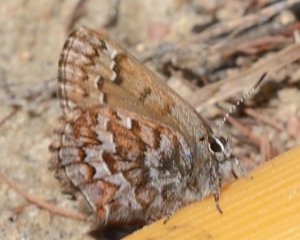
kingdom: Animalia
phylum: Arthropoda
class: Insecta
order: Lepidoptera
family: Lycaenidae
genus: Incisalia
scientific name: Incisalia niphon
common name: Eastern Pine Elfin
